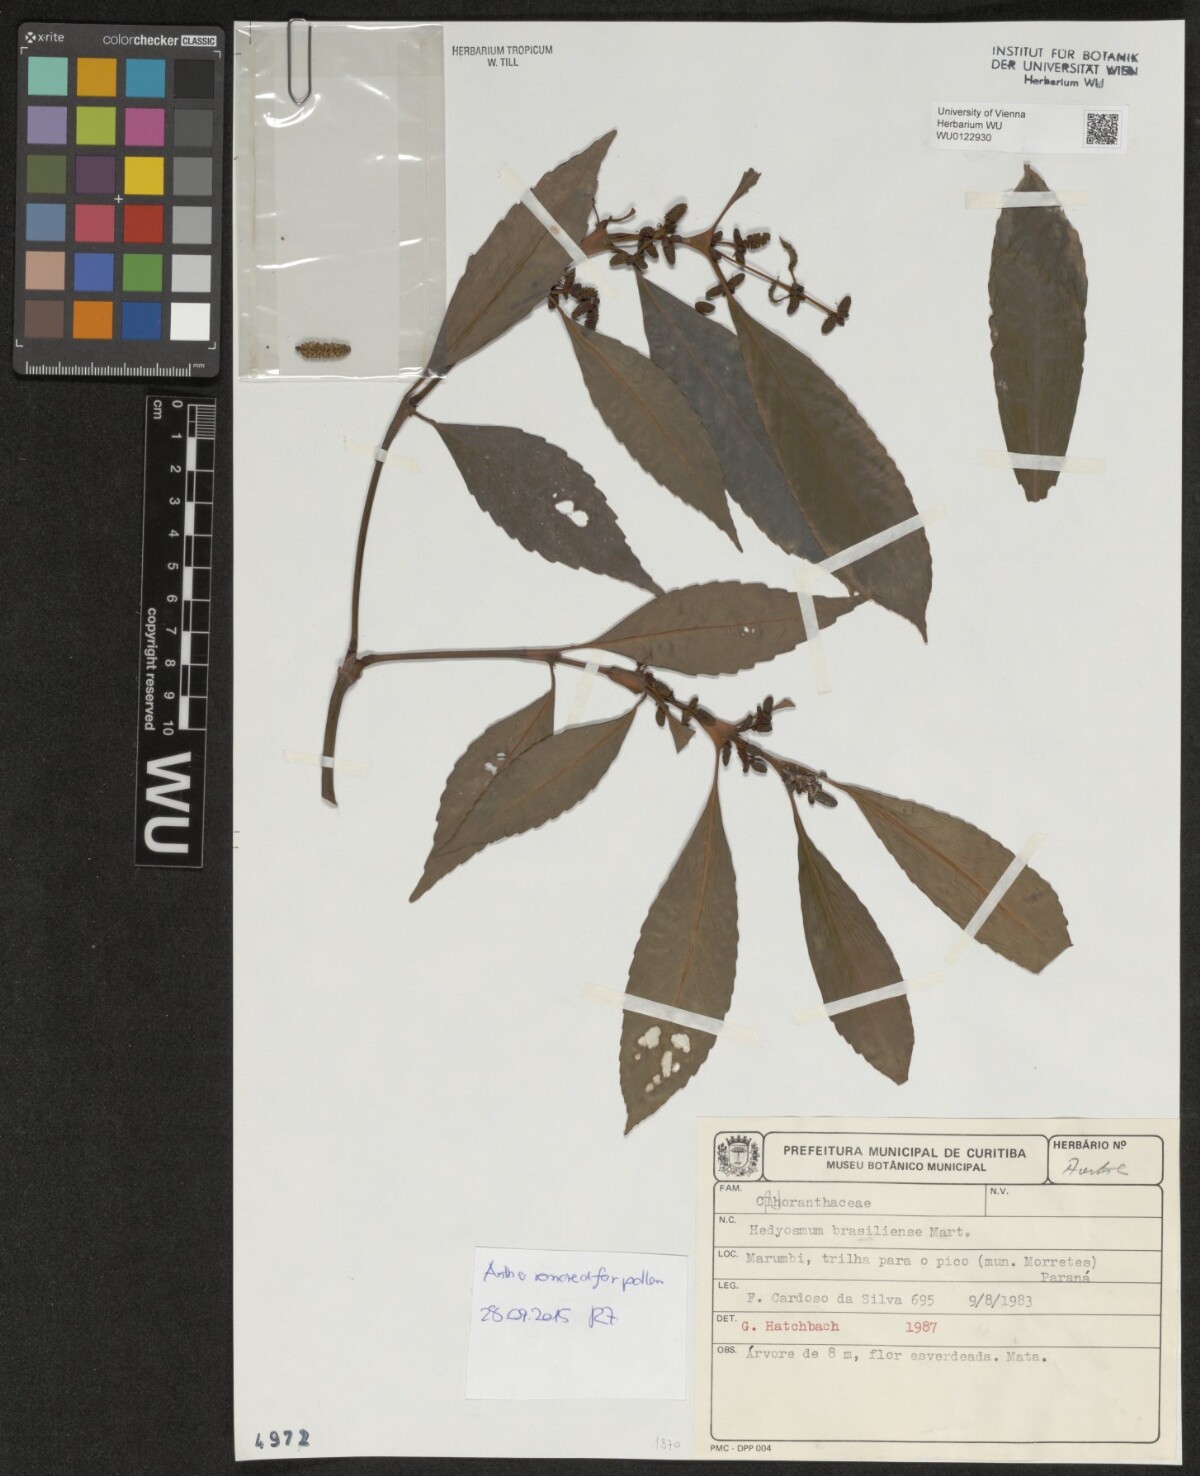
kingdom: Plantae
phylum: Tracheophyta
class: Magnoliopsida
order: Chloranthales
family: Chloranthaceae
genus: Hedyosmum
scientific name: Hedyosmum brasiliense
